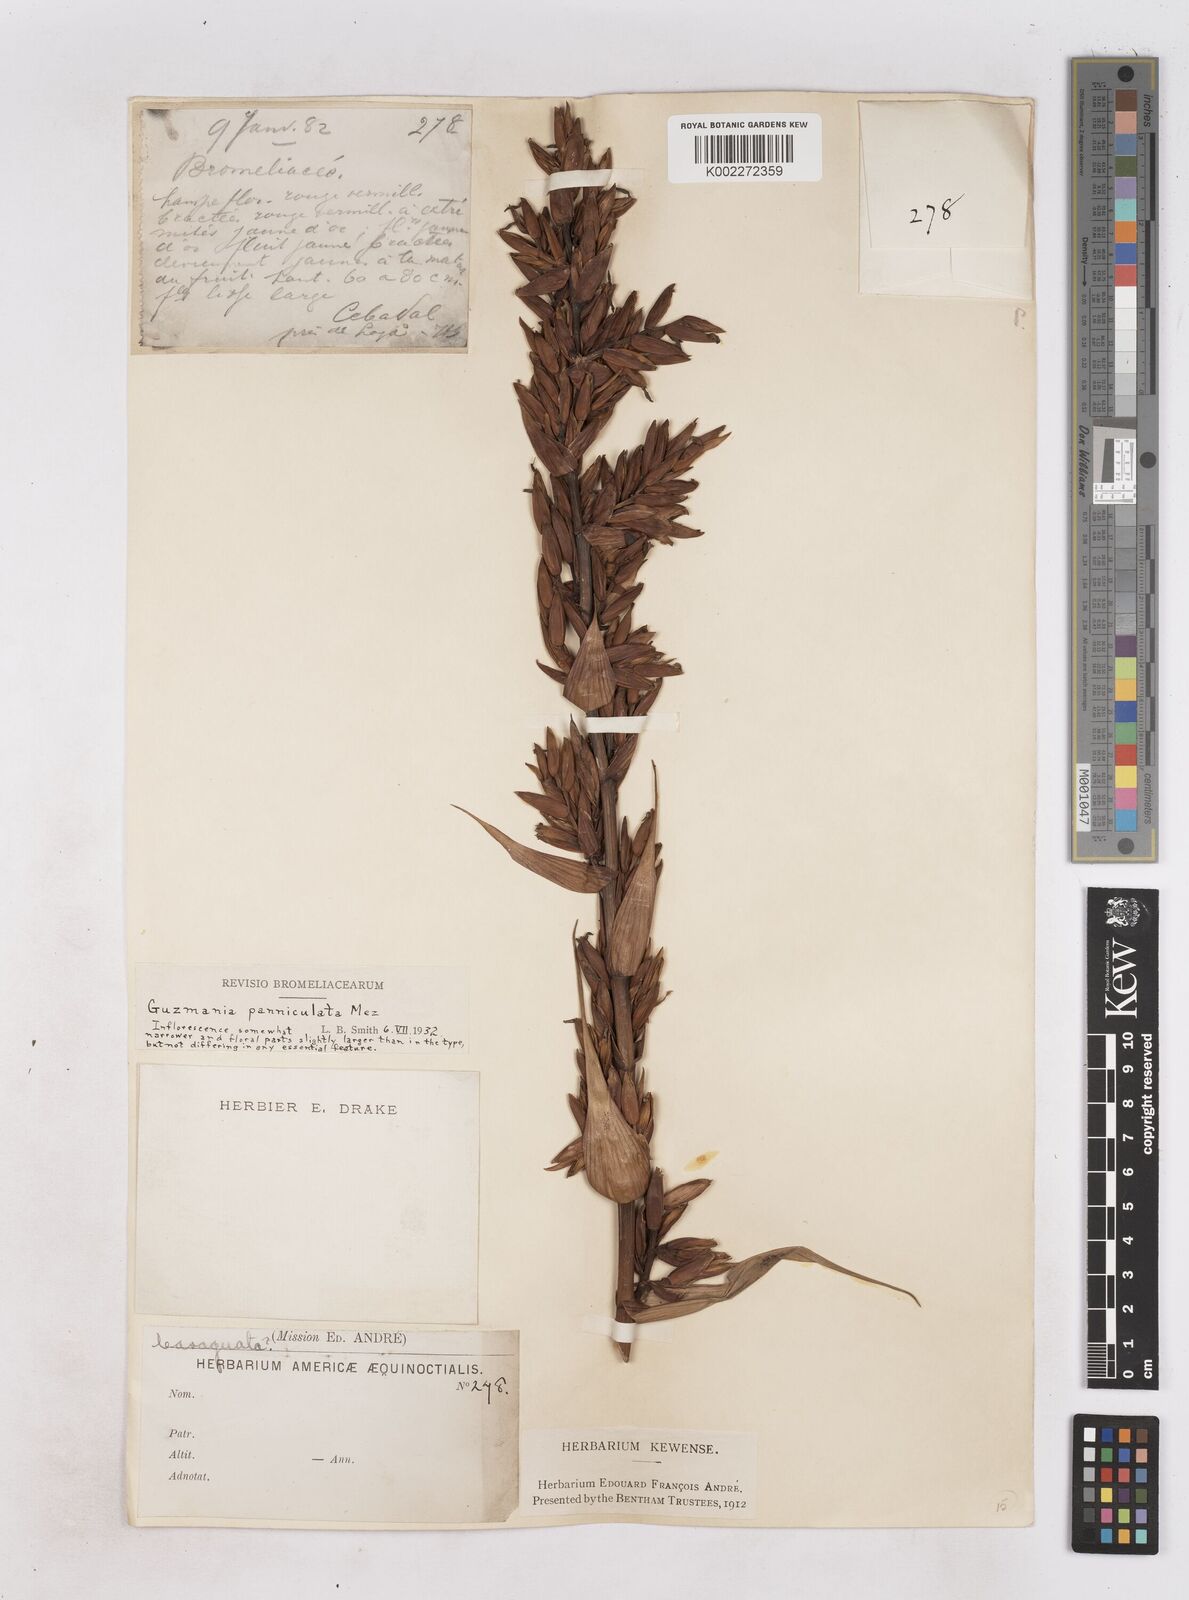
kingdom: Plantae
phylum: Tracheophyta
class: Liliopsida
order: Poales
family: Bromeliaceae
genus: Guzmania
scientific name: Guzmania paniculata
